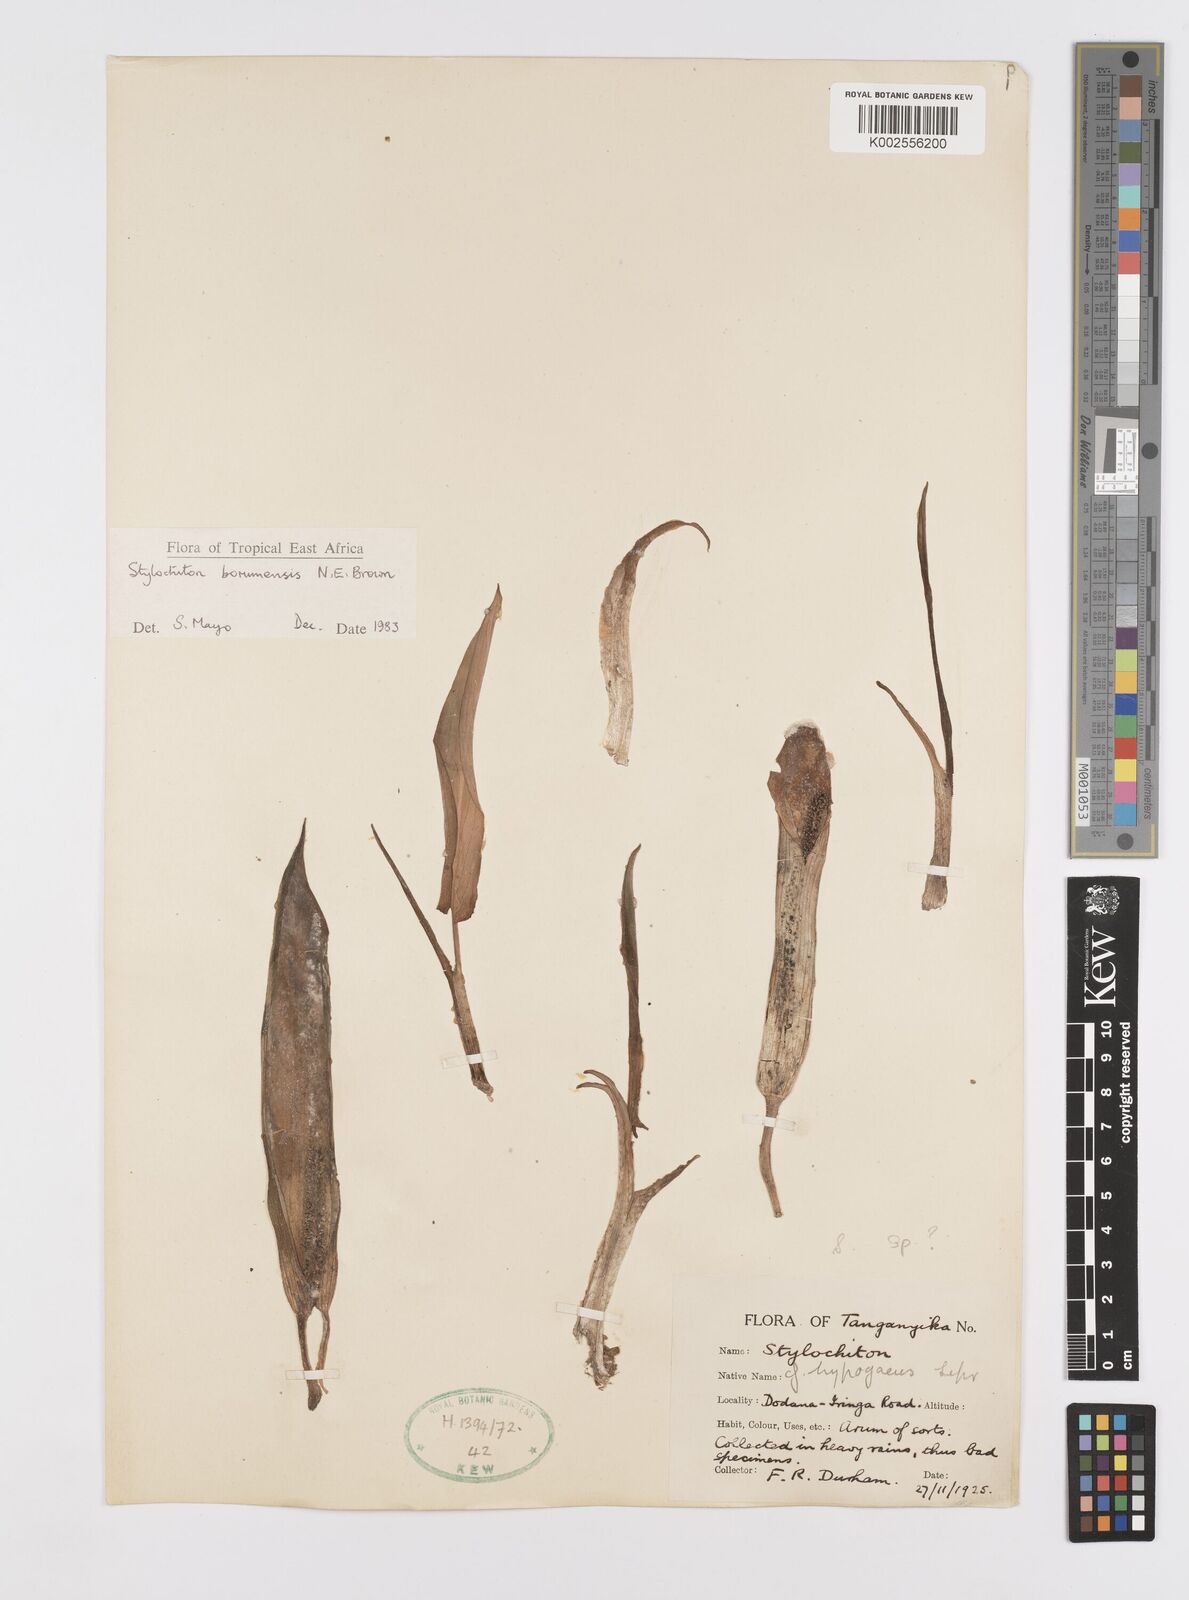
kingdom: Plantae
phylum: Tracheophyta
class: Liliopsida
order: Alismatales
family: Araceae
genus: Stylochaeton
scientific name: Stylochaeton borumense
